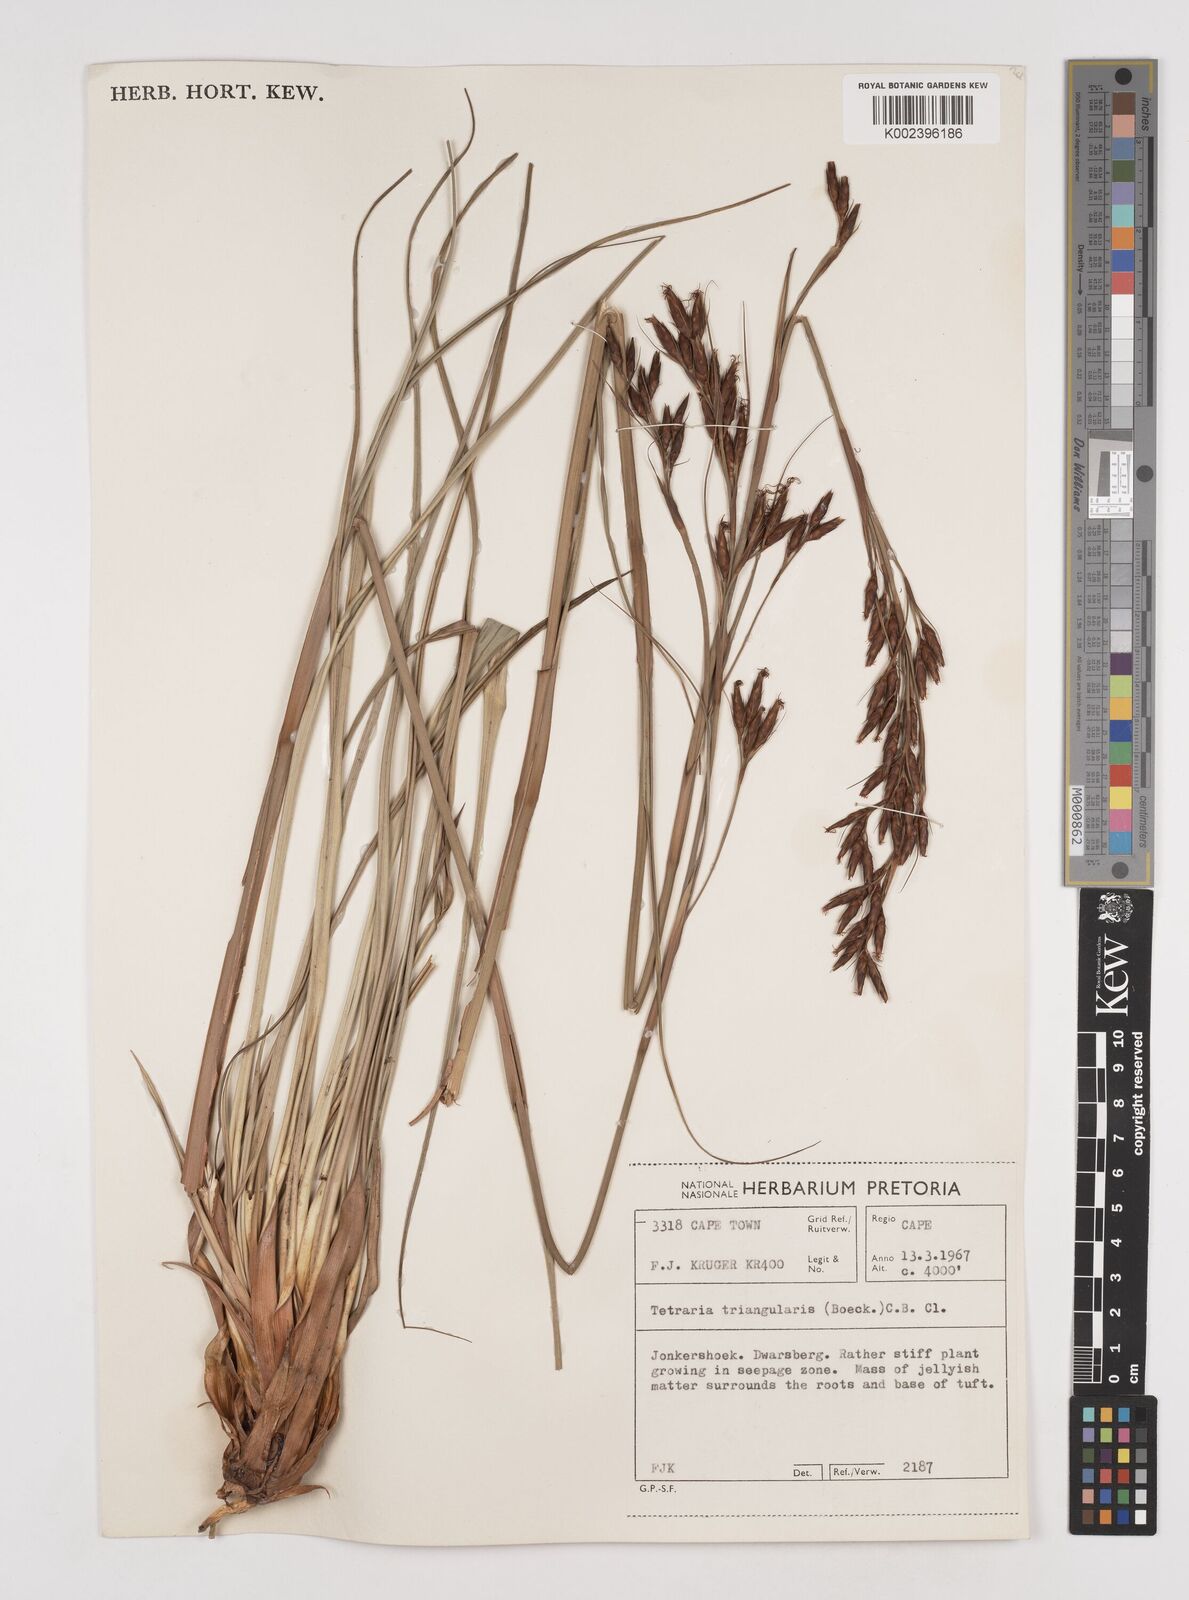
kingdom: Plantae
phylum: Tracheophyta
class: Liliopsida
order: Poales
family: Cyperaceae
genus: Tetraria
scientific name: Tetraria triangularis
